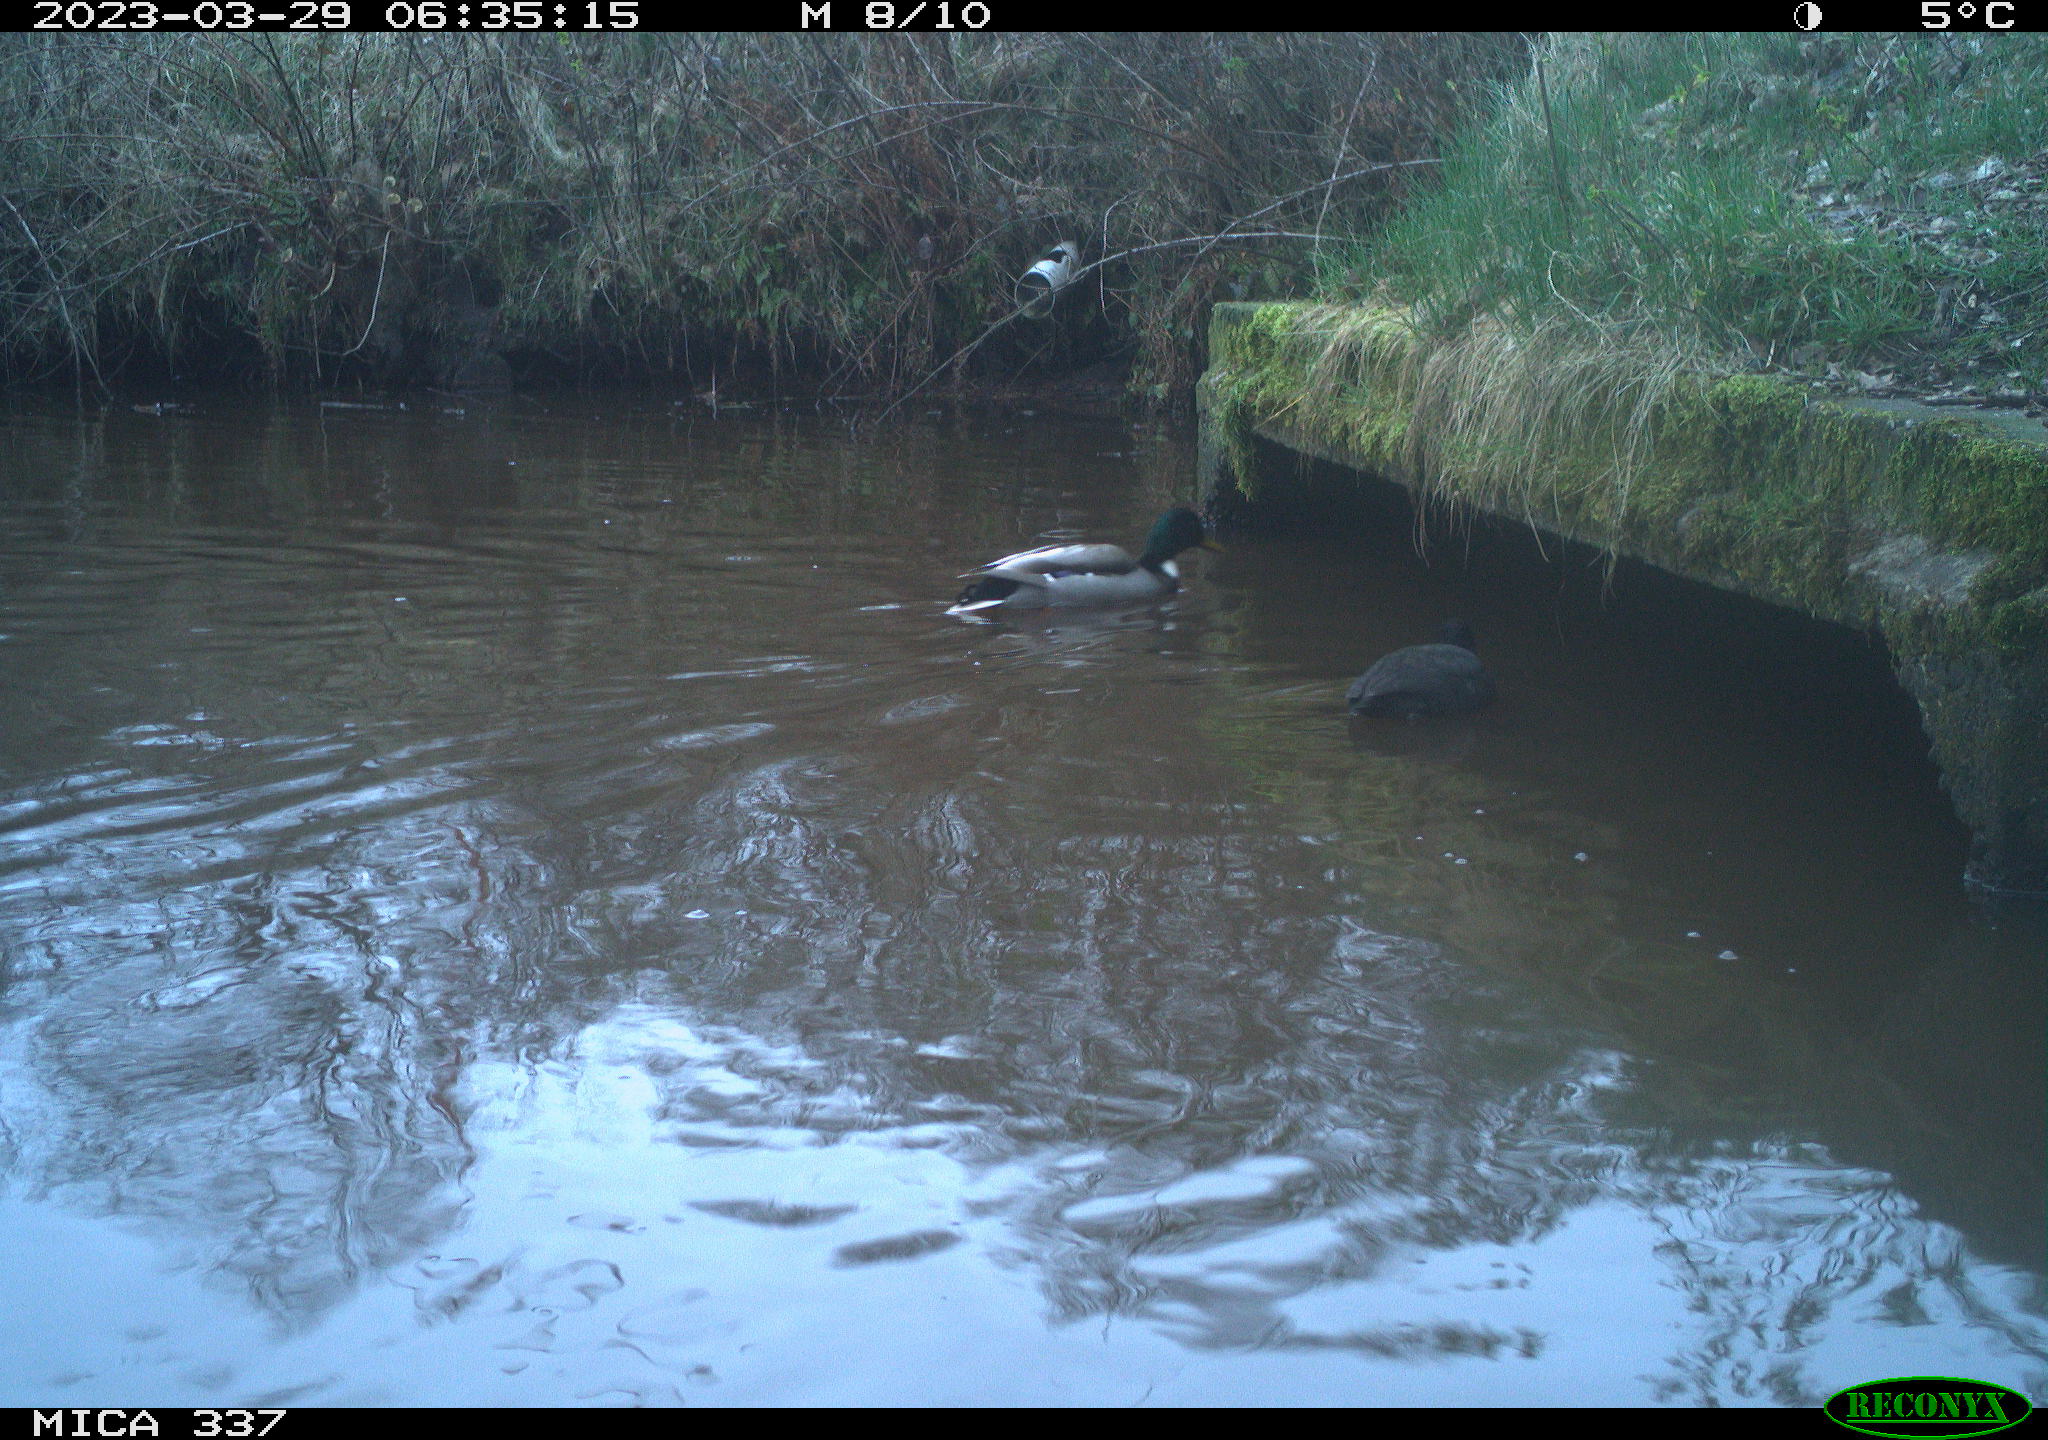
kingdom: Animalia
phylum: Chordata
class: Aves
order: Anseriformes
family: Anatidae
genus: Anas
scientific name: Anas platyrhynchos
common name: Mallard
